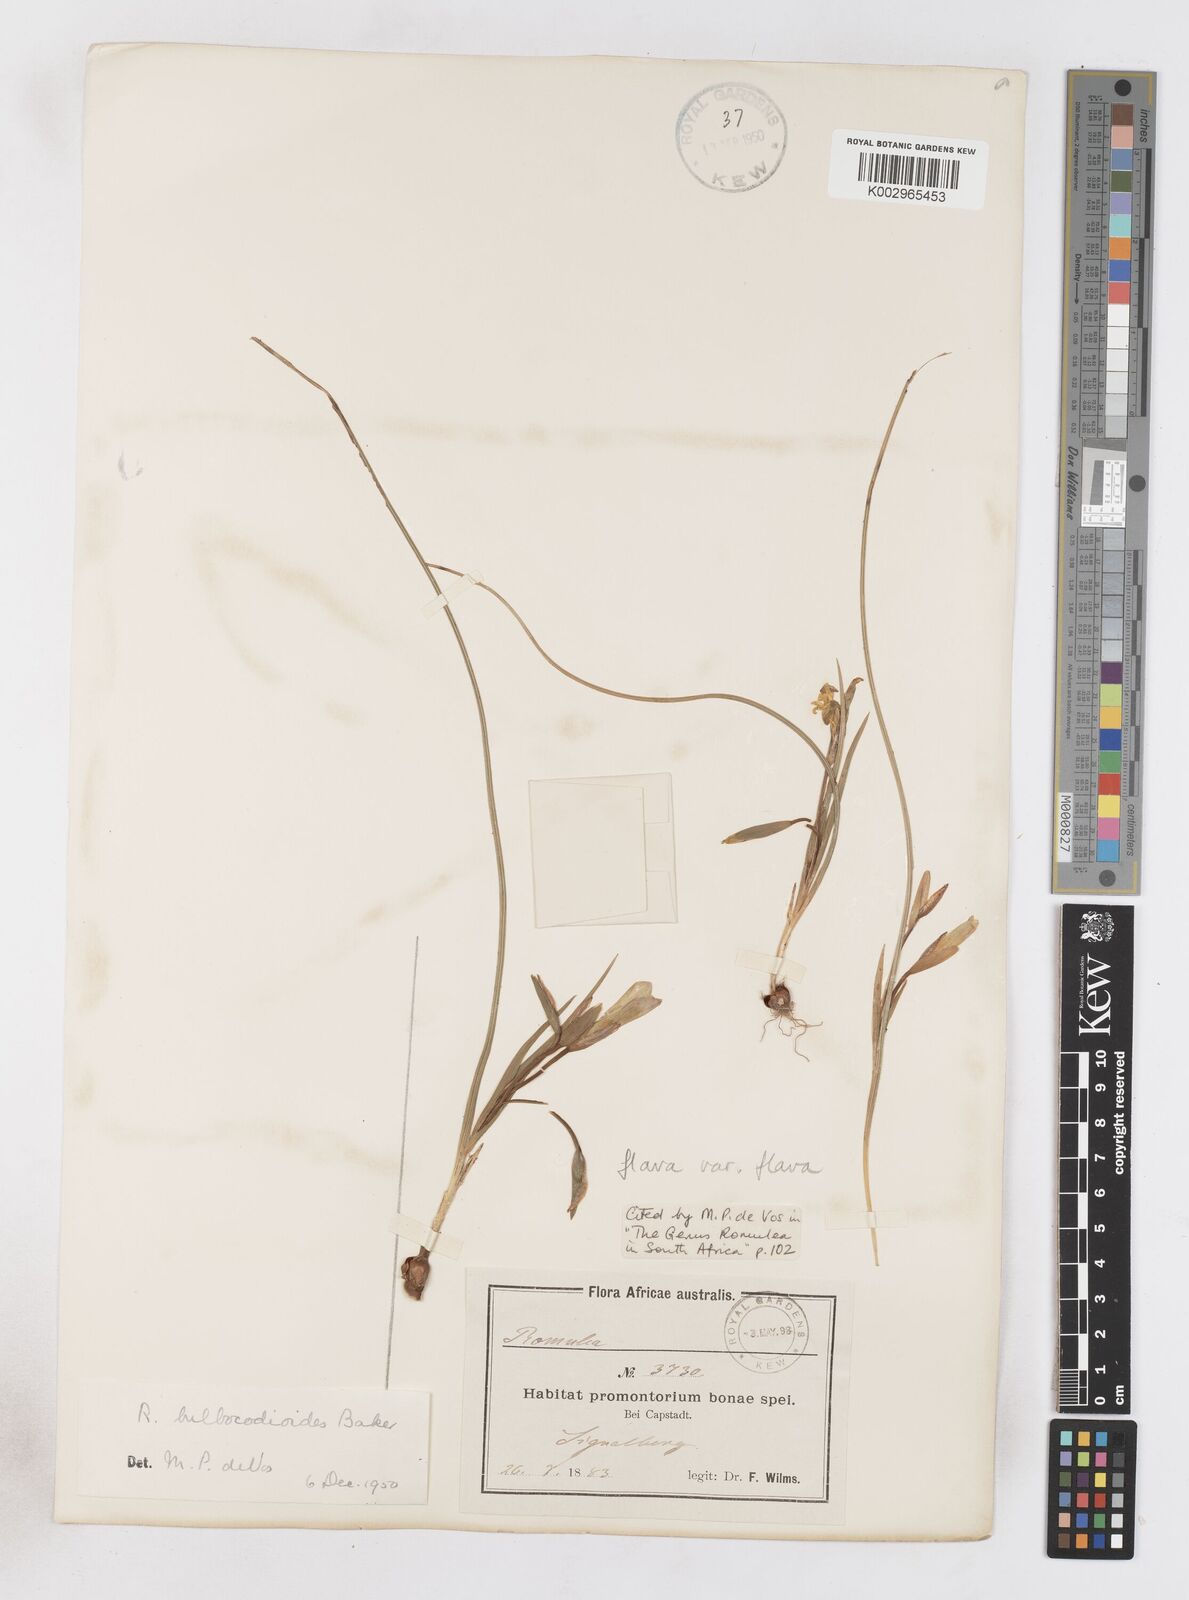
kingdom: Plantae
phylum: Tracheophyta
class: Liliopsida
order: Asparagales
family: Iridaceae
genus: Romulea
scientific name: Romulea flava
